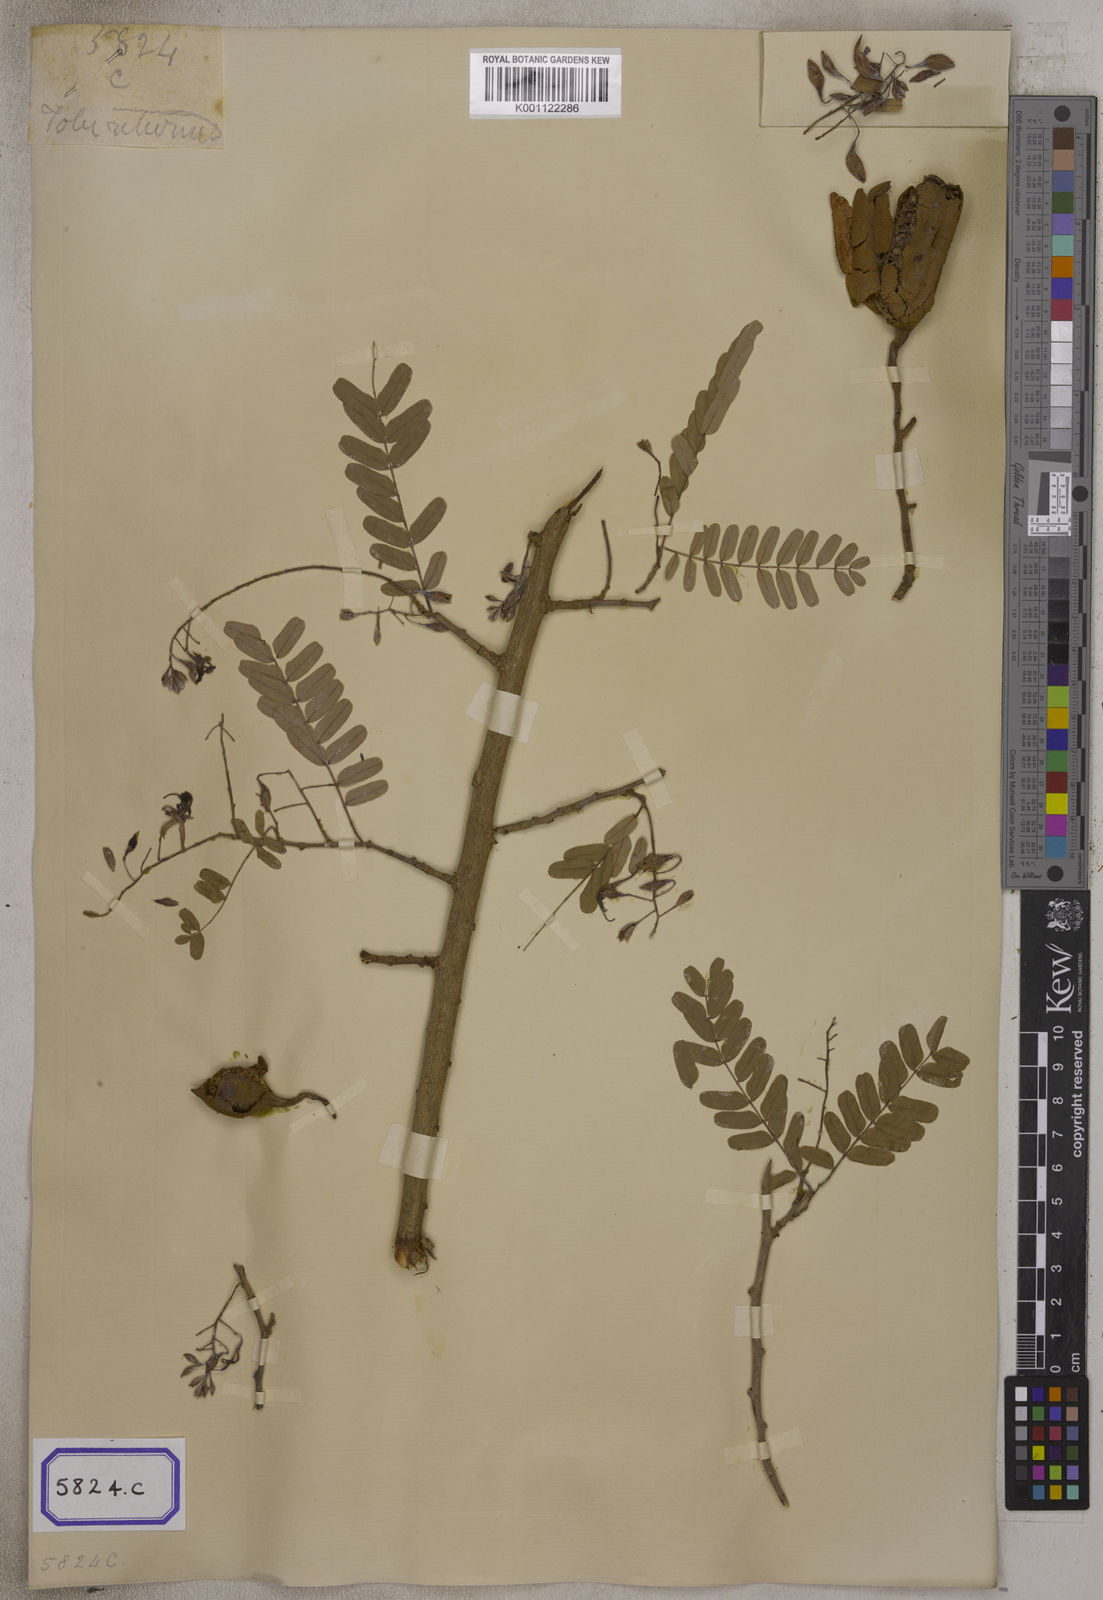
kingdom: Plantae
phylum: Tracheophyta
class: Magnoliopsida
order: Fabales
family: Fabaceae
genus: Tamarindus
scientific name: Tamarindus indica
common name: Tamarind
